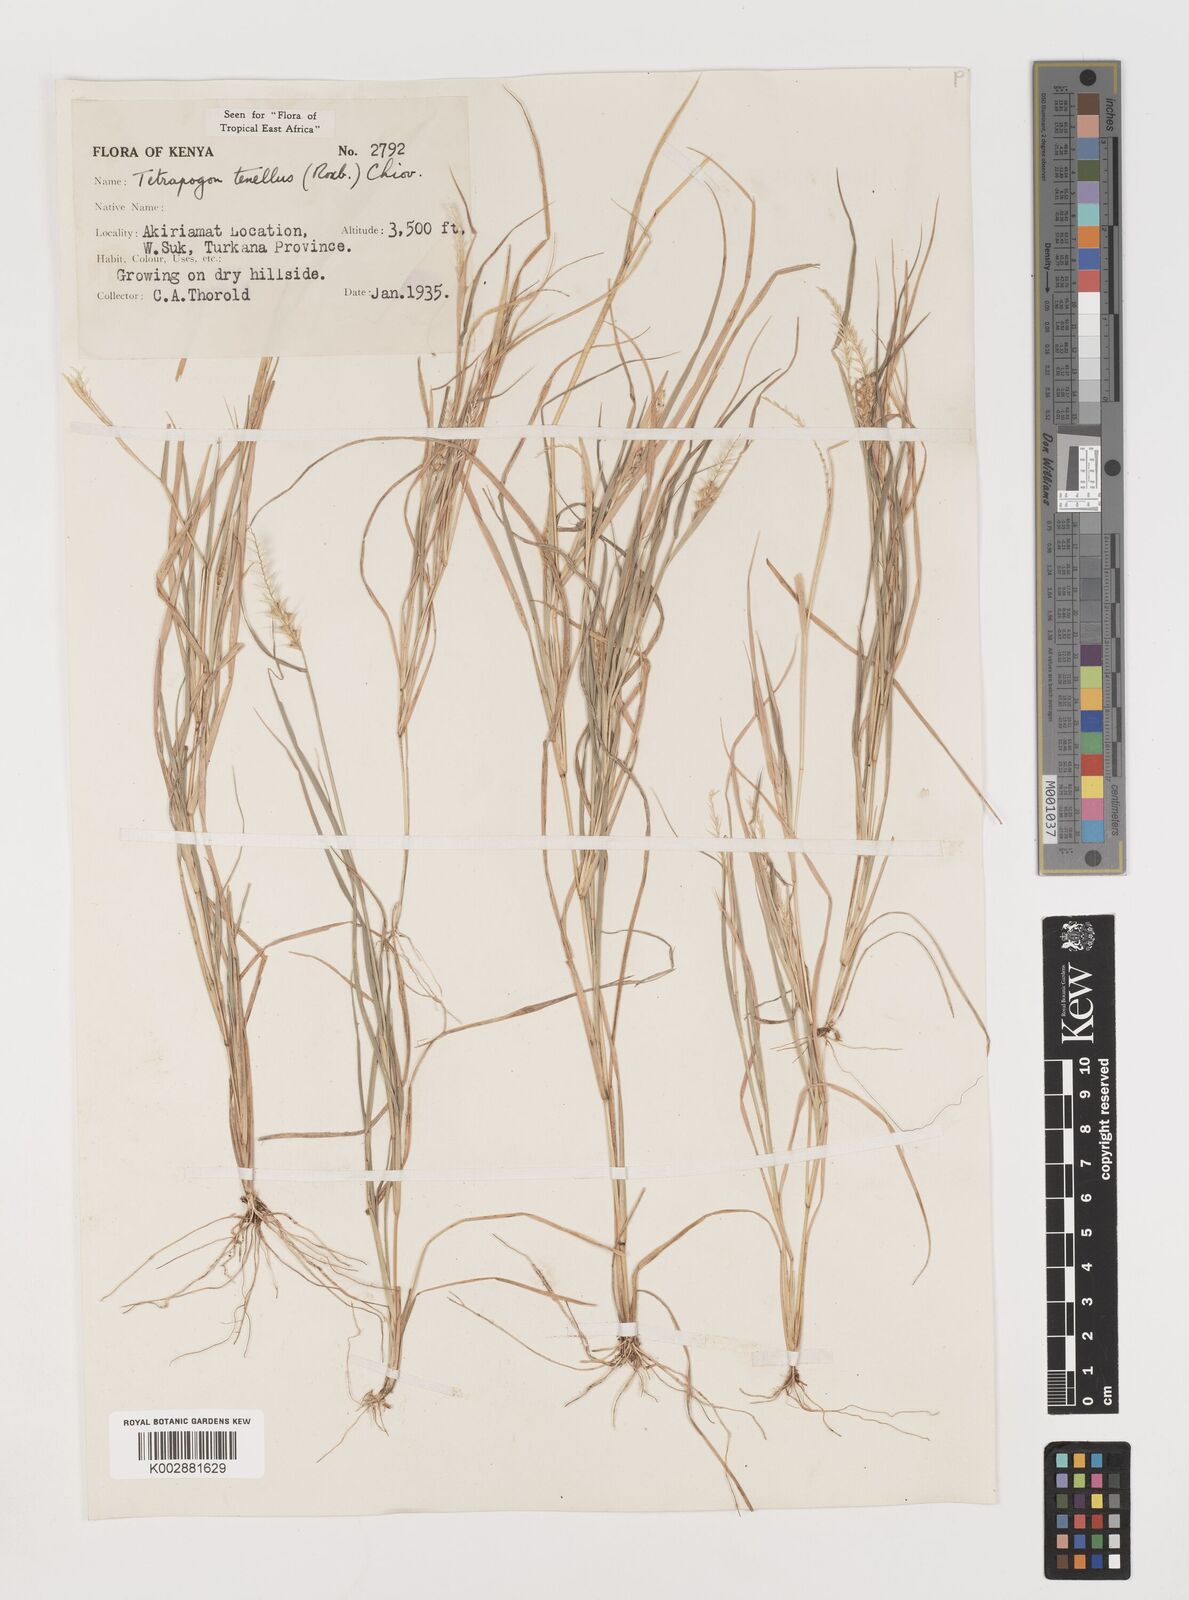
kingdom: Plantae
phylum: Tracheophyta
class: Liliopsida
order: Poales
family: Poaceae
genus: Tetrapogon
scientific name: Tetrapogon tenellus
